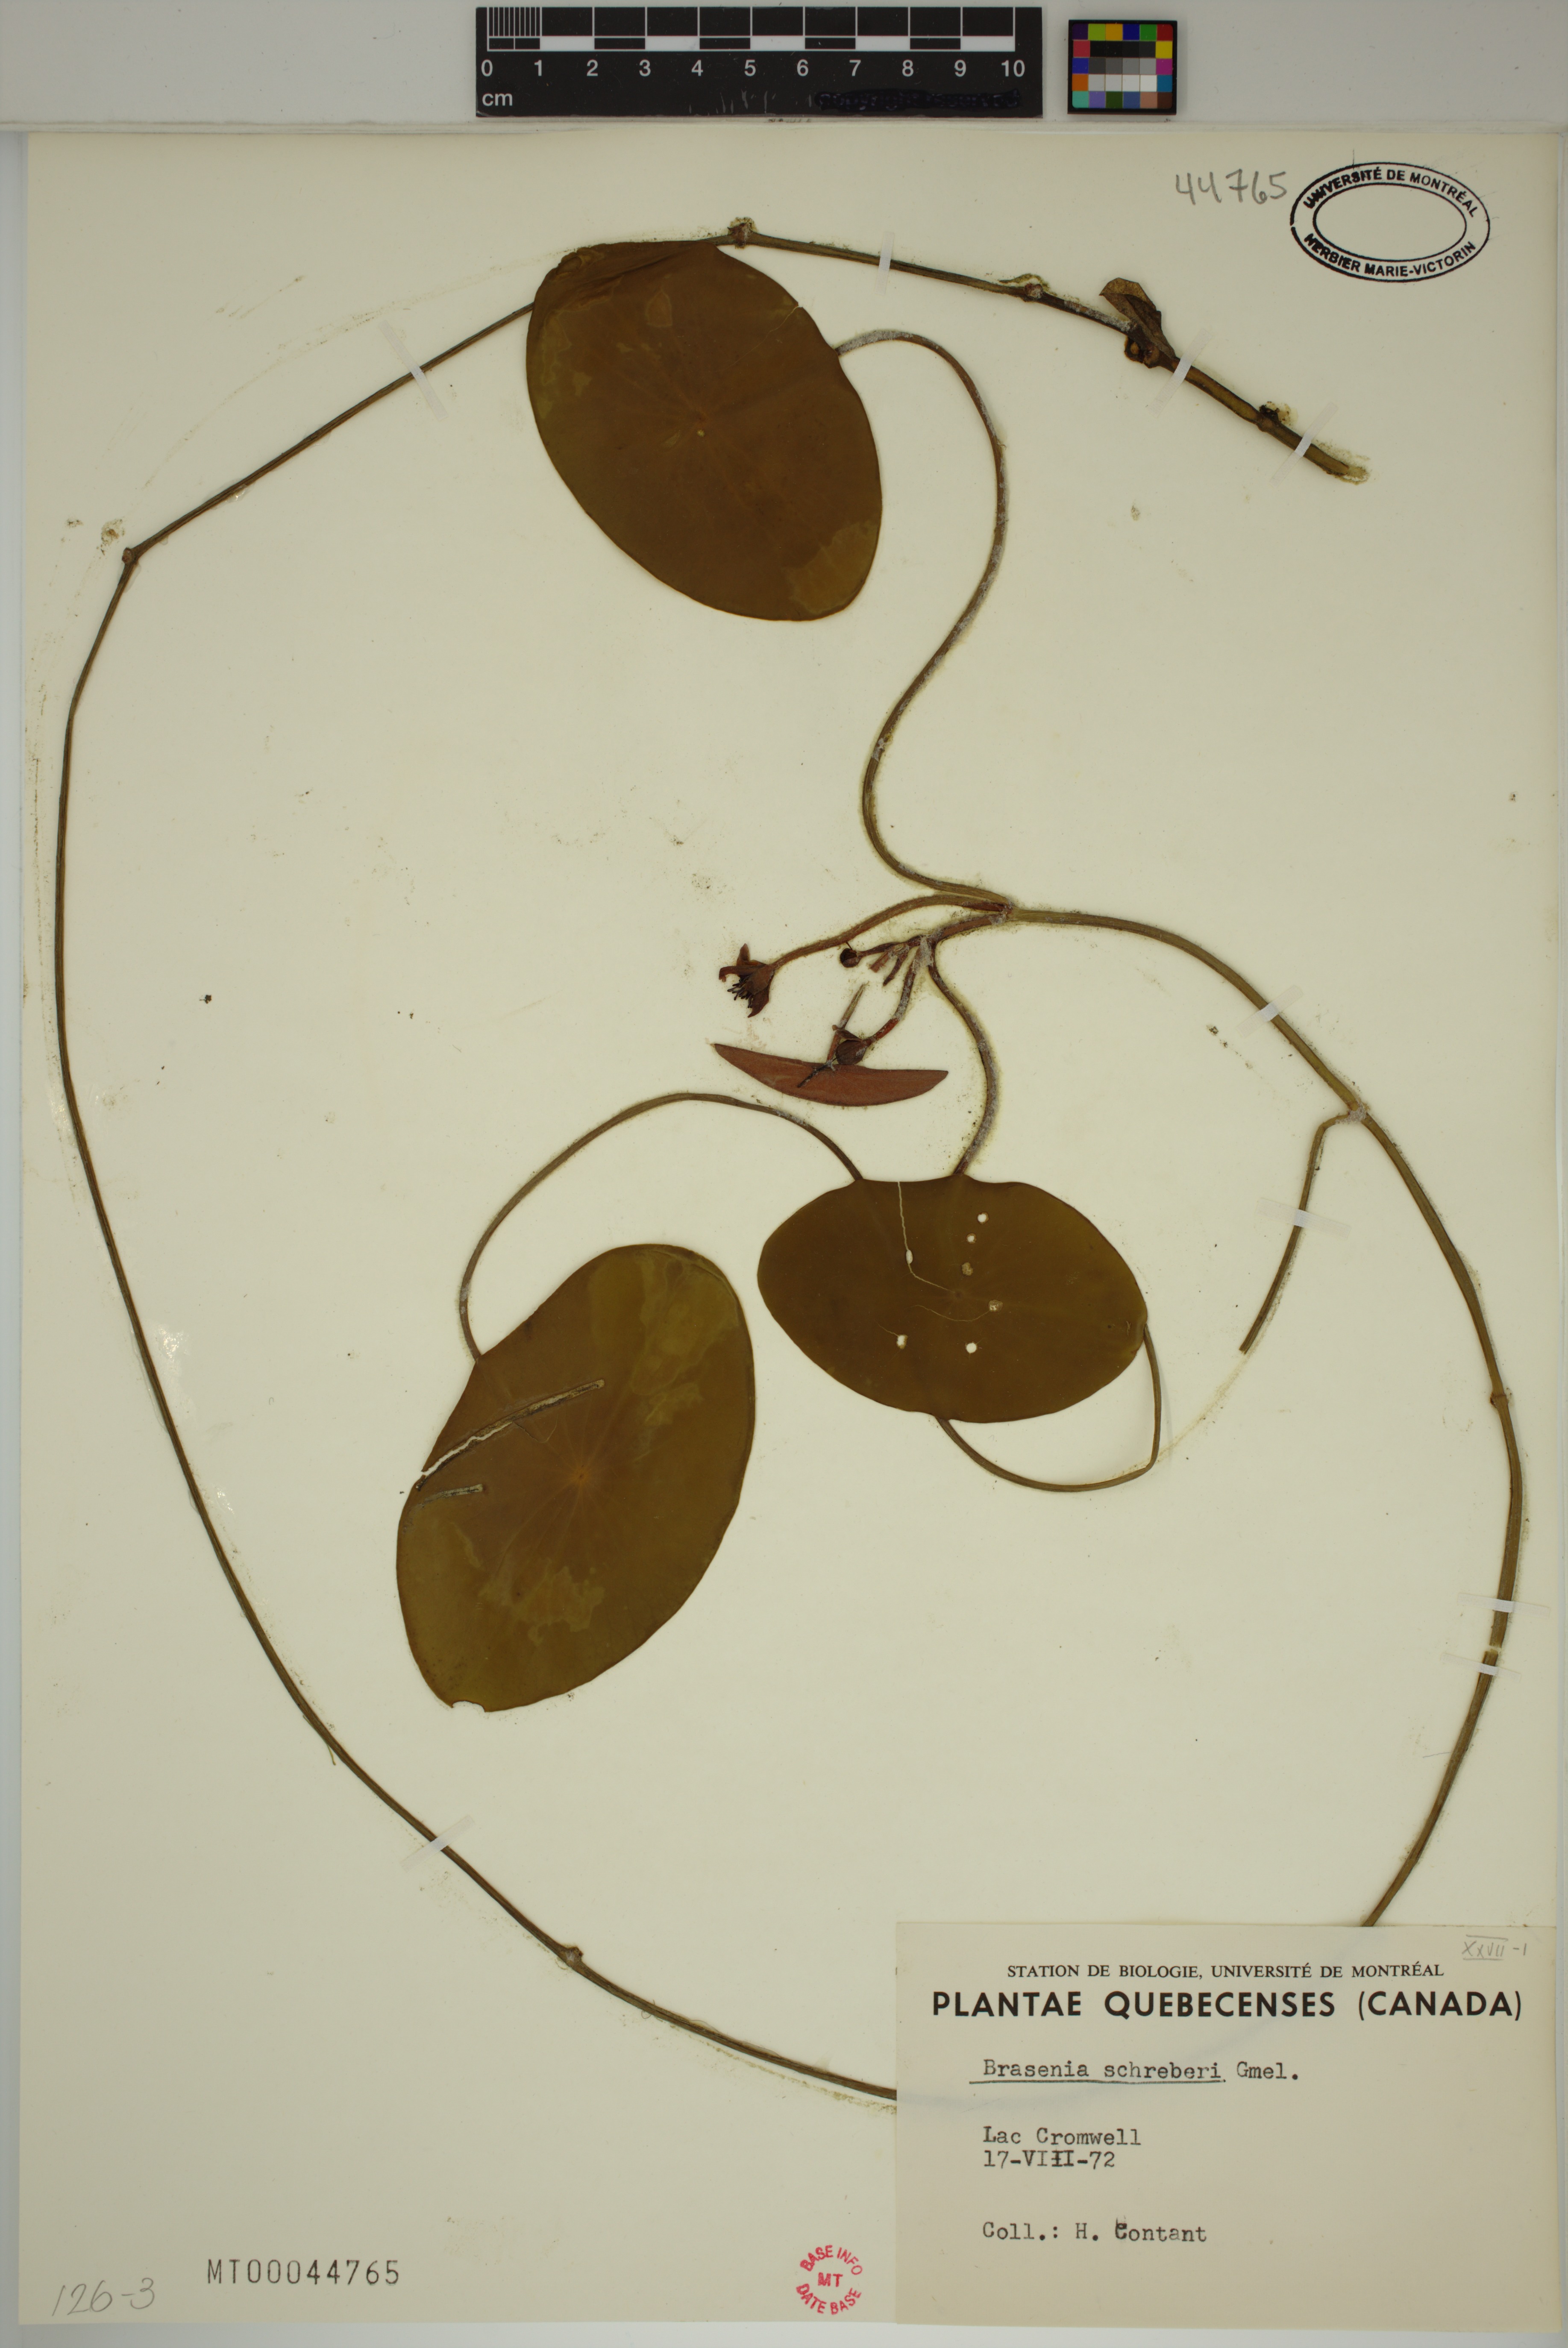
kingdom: Plantae
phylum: Tracheophyta
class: Magnoliopsida
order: Nymphaeales
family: Cabombaceae
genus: Brasenia
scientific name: Brasenia schreberi
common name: Water-shield
